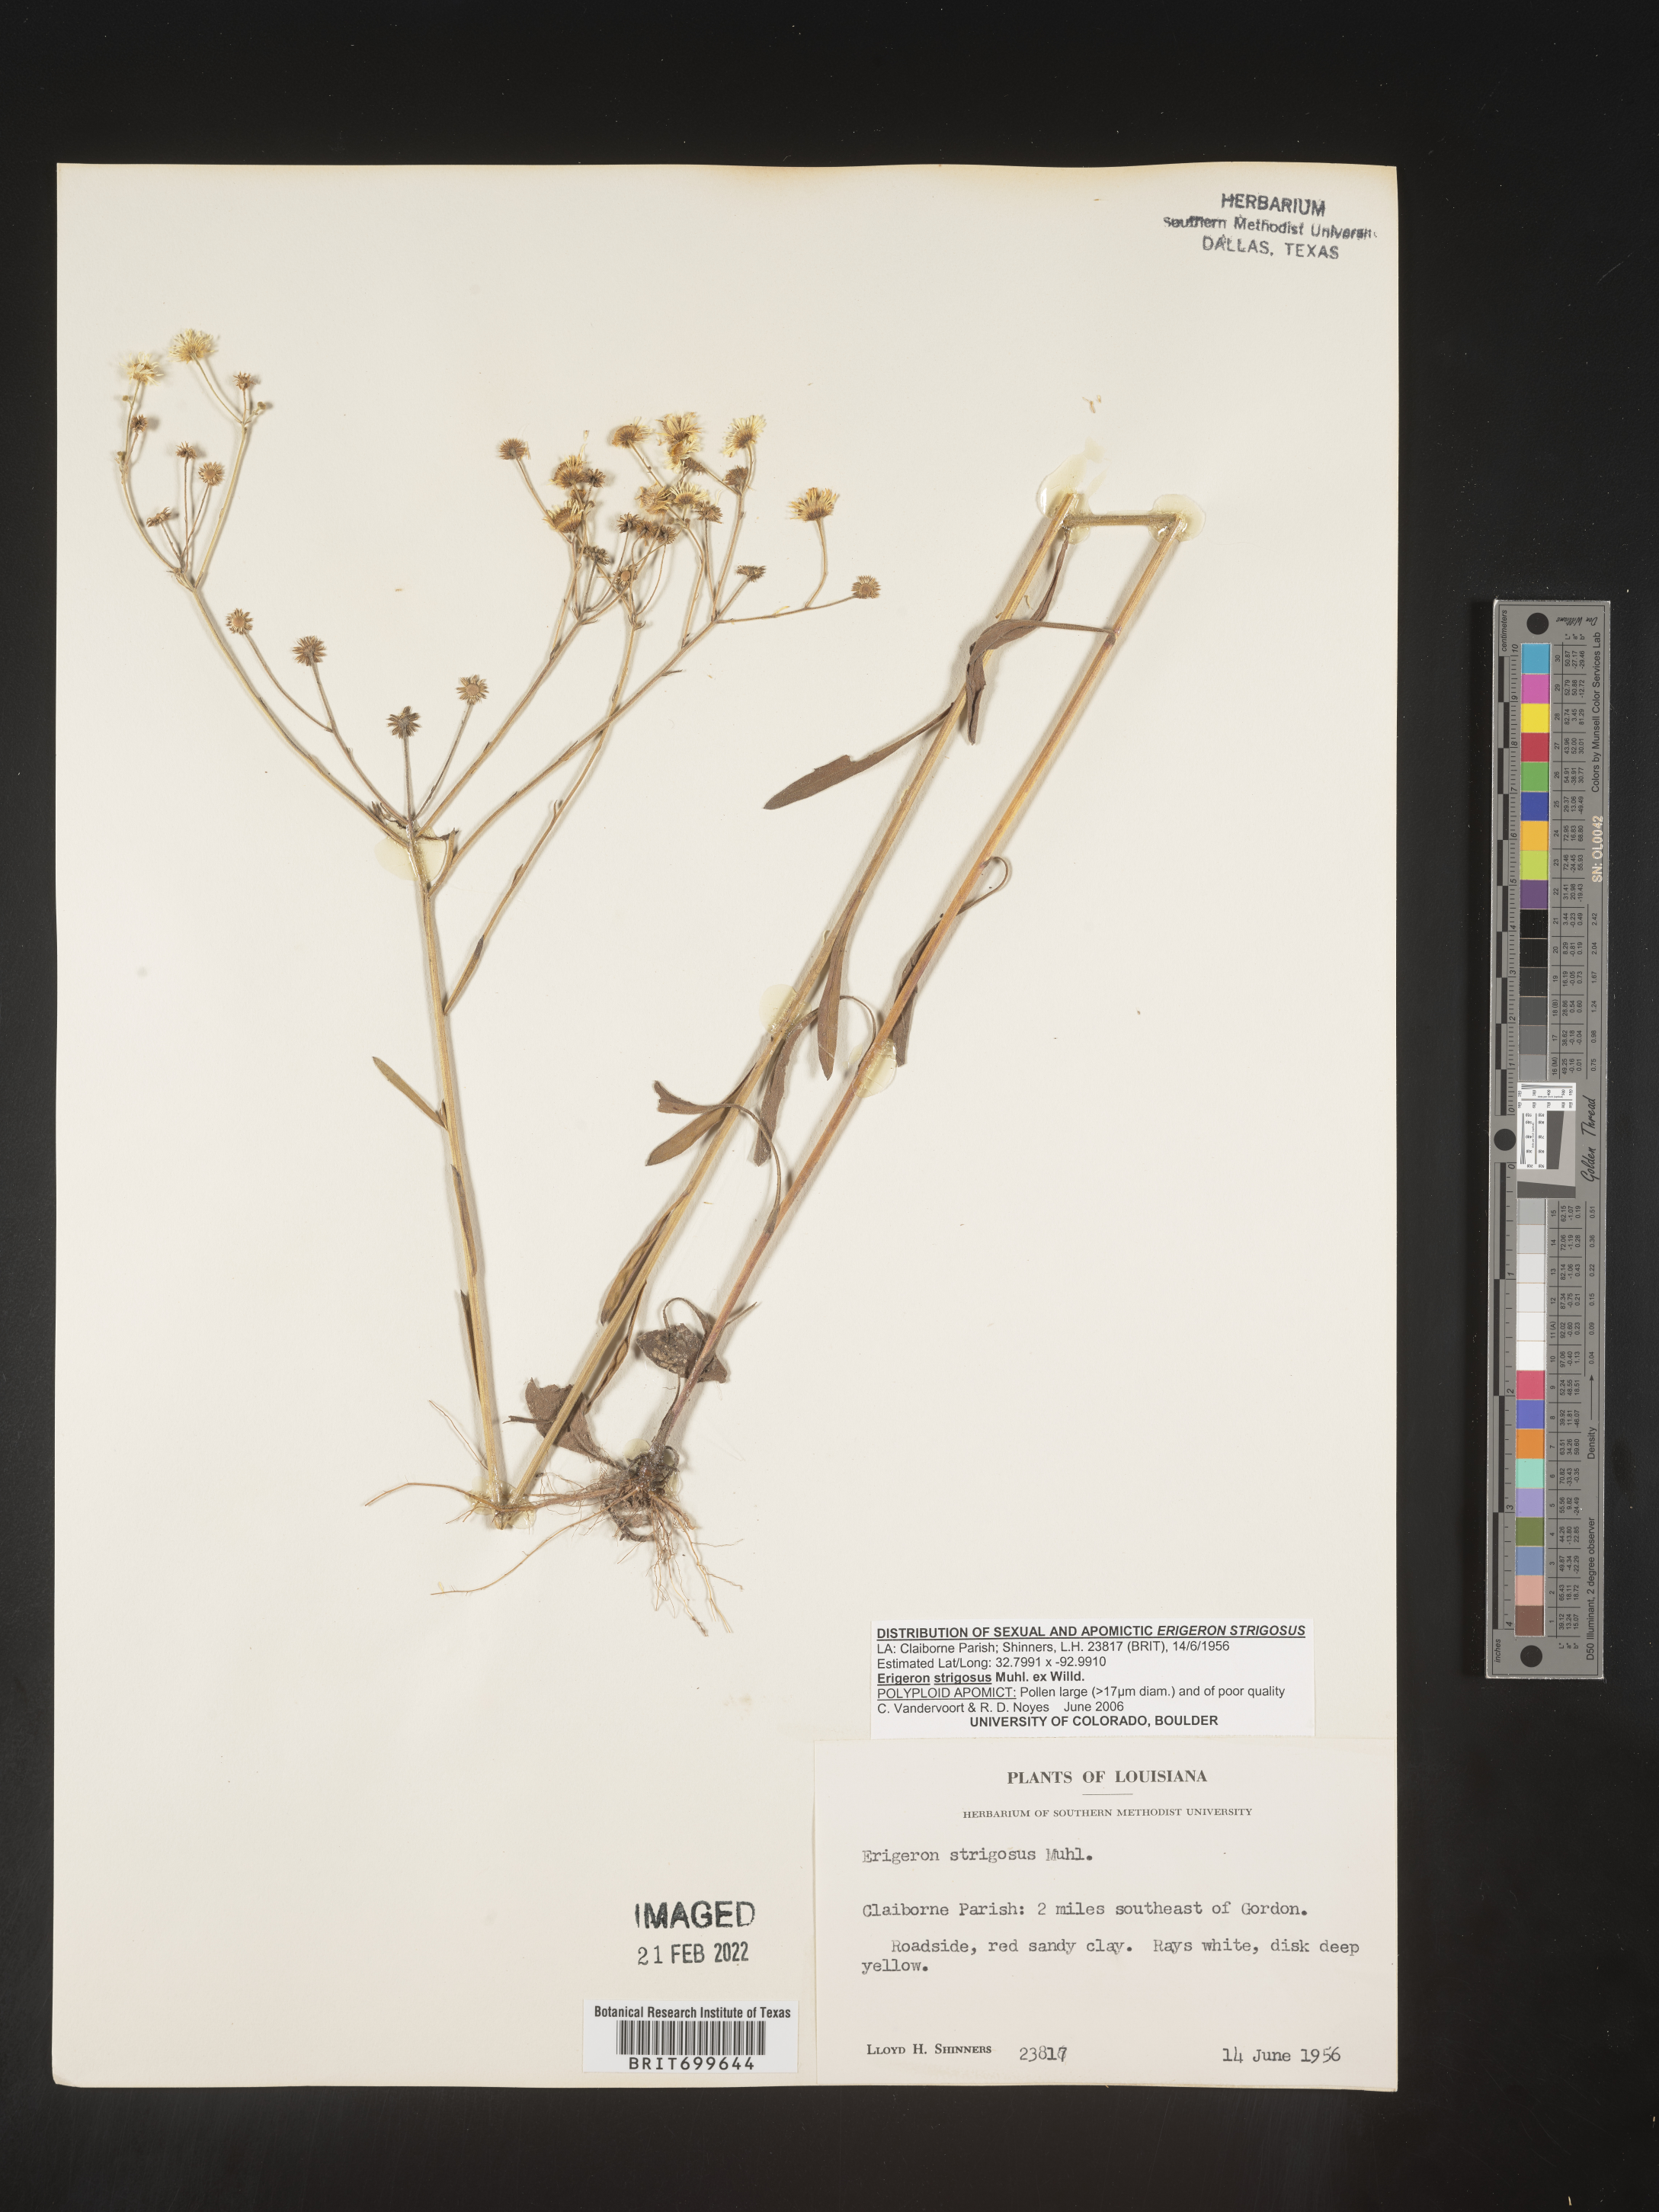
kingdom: Plantae
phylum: Tracheophyta
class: Magnoliopsida
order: Asterales
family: Asteraceae
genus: Erigeron
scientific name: Erigeron strigosus
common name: Common eastern fleabane
